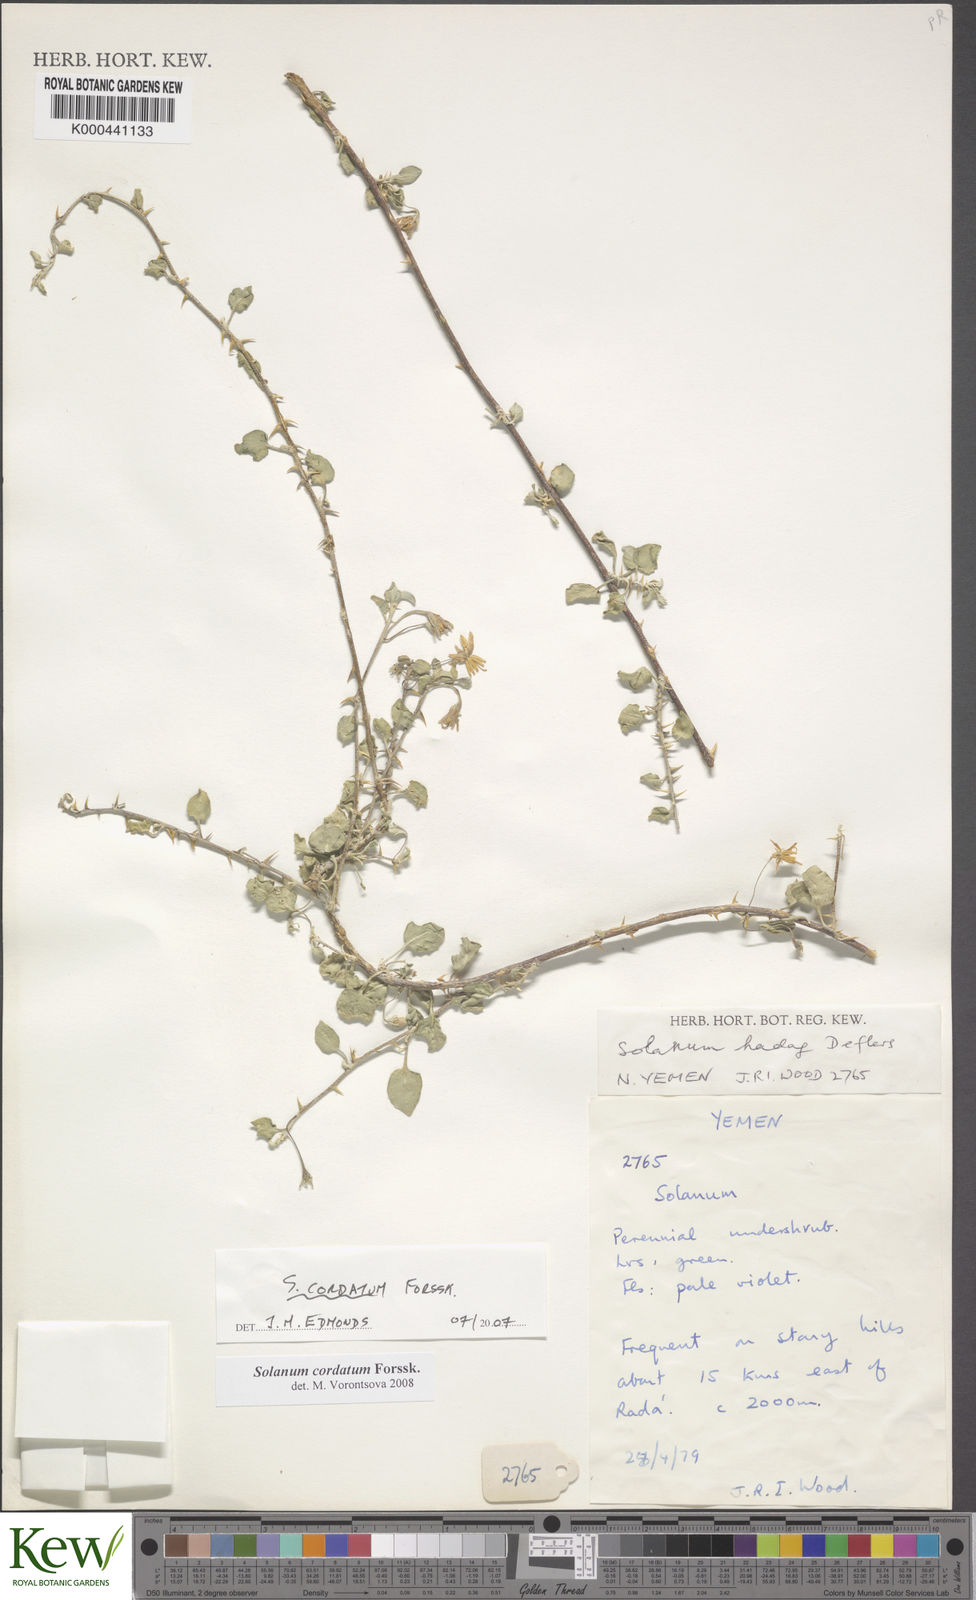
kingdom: Plantae
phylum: Tracheophyta
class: Magnoliopsida
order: Solanales
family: Solanaceae
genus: Solanum
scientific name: Solanum cordatum
